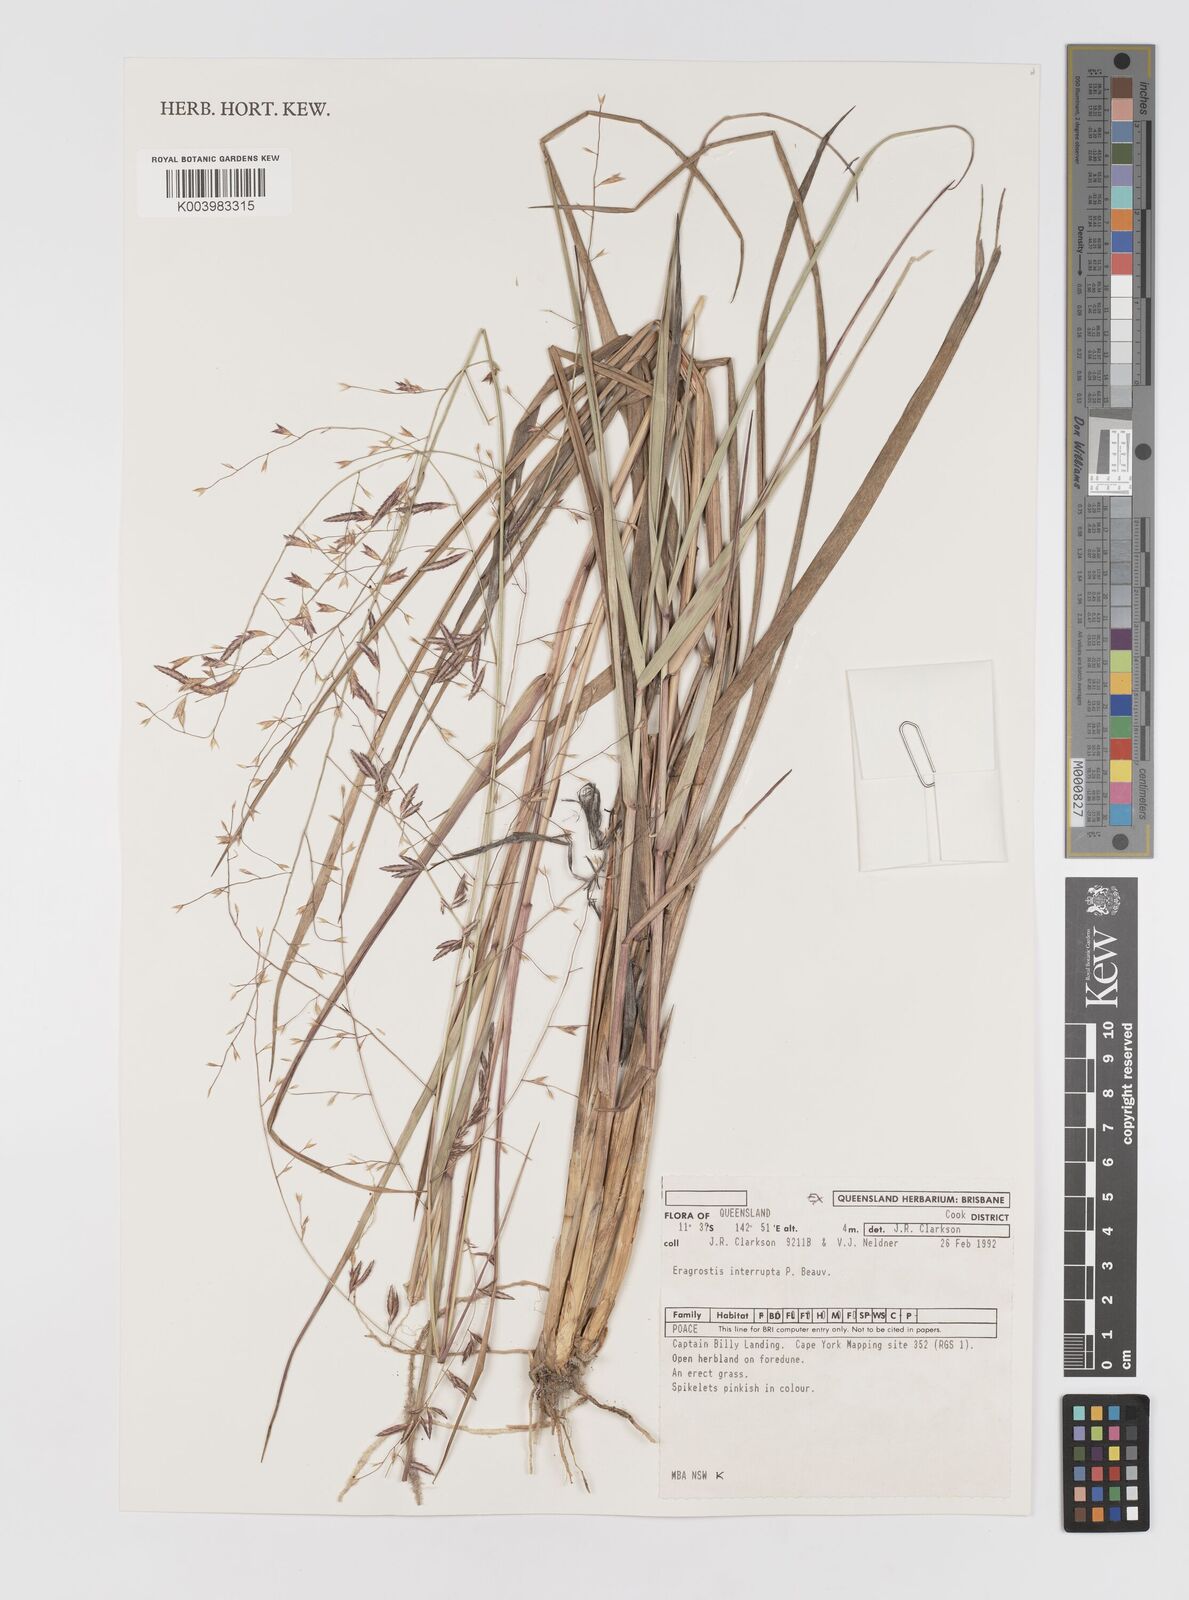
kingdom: Plantae
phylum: Tracheophyta
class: Liliopsida
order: Poales
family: Poaceae
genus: Eragrostis
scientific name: Eragrostis interrupta
